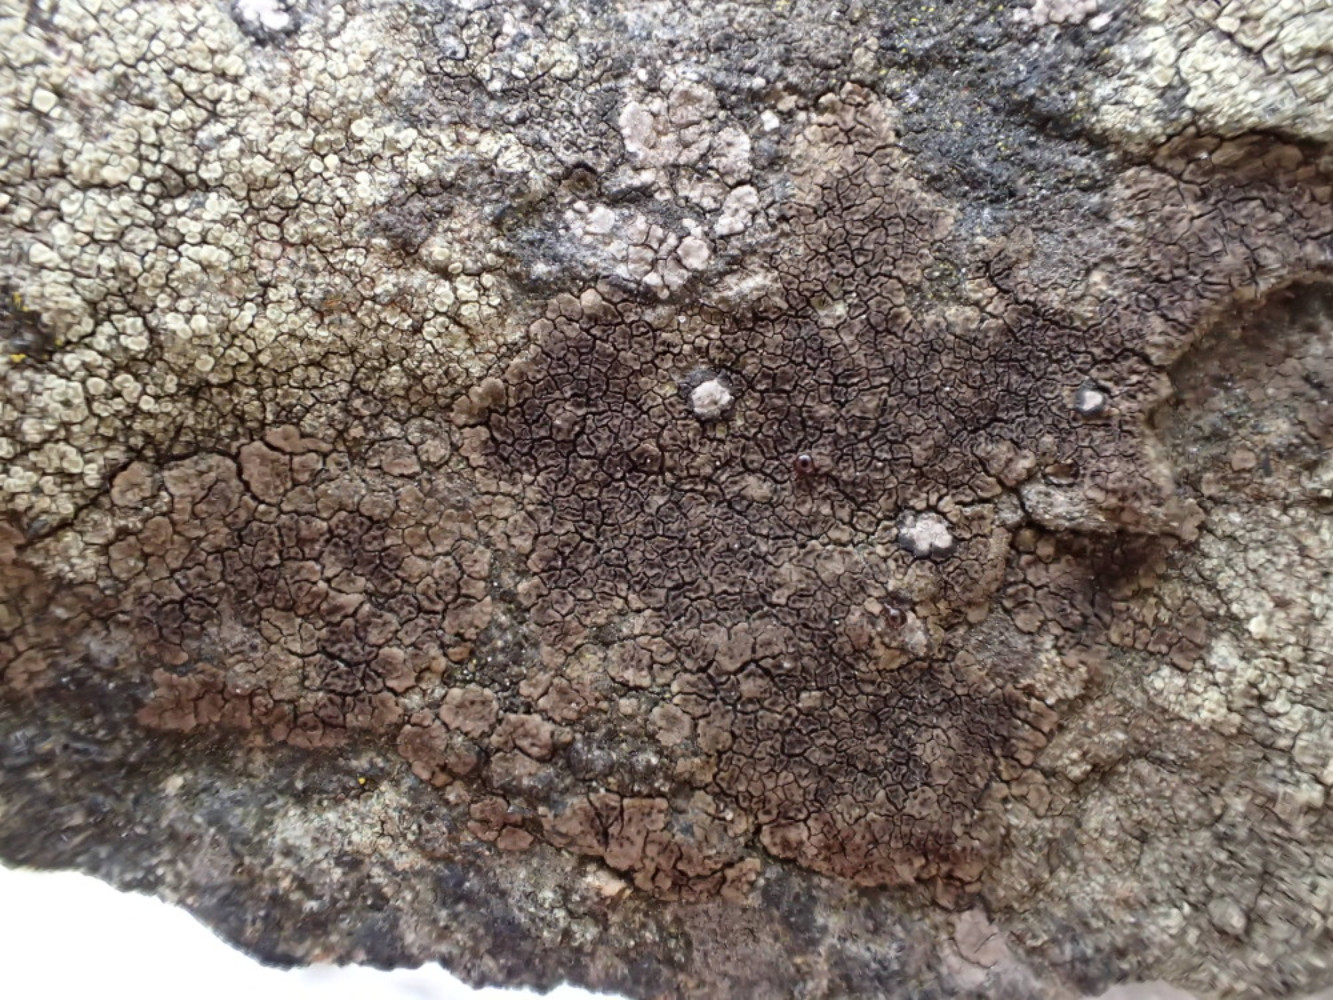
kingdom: Fungi
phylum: Ascomycota
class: Lecanoromycetes
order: Acarosporales
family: Acarosporaceae
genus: Acarospora
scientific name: Acarospora fuscata
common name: brun småsporelav
